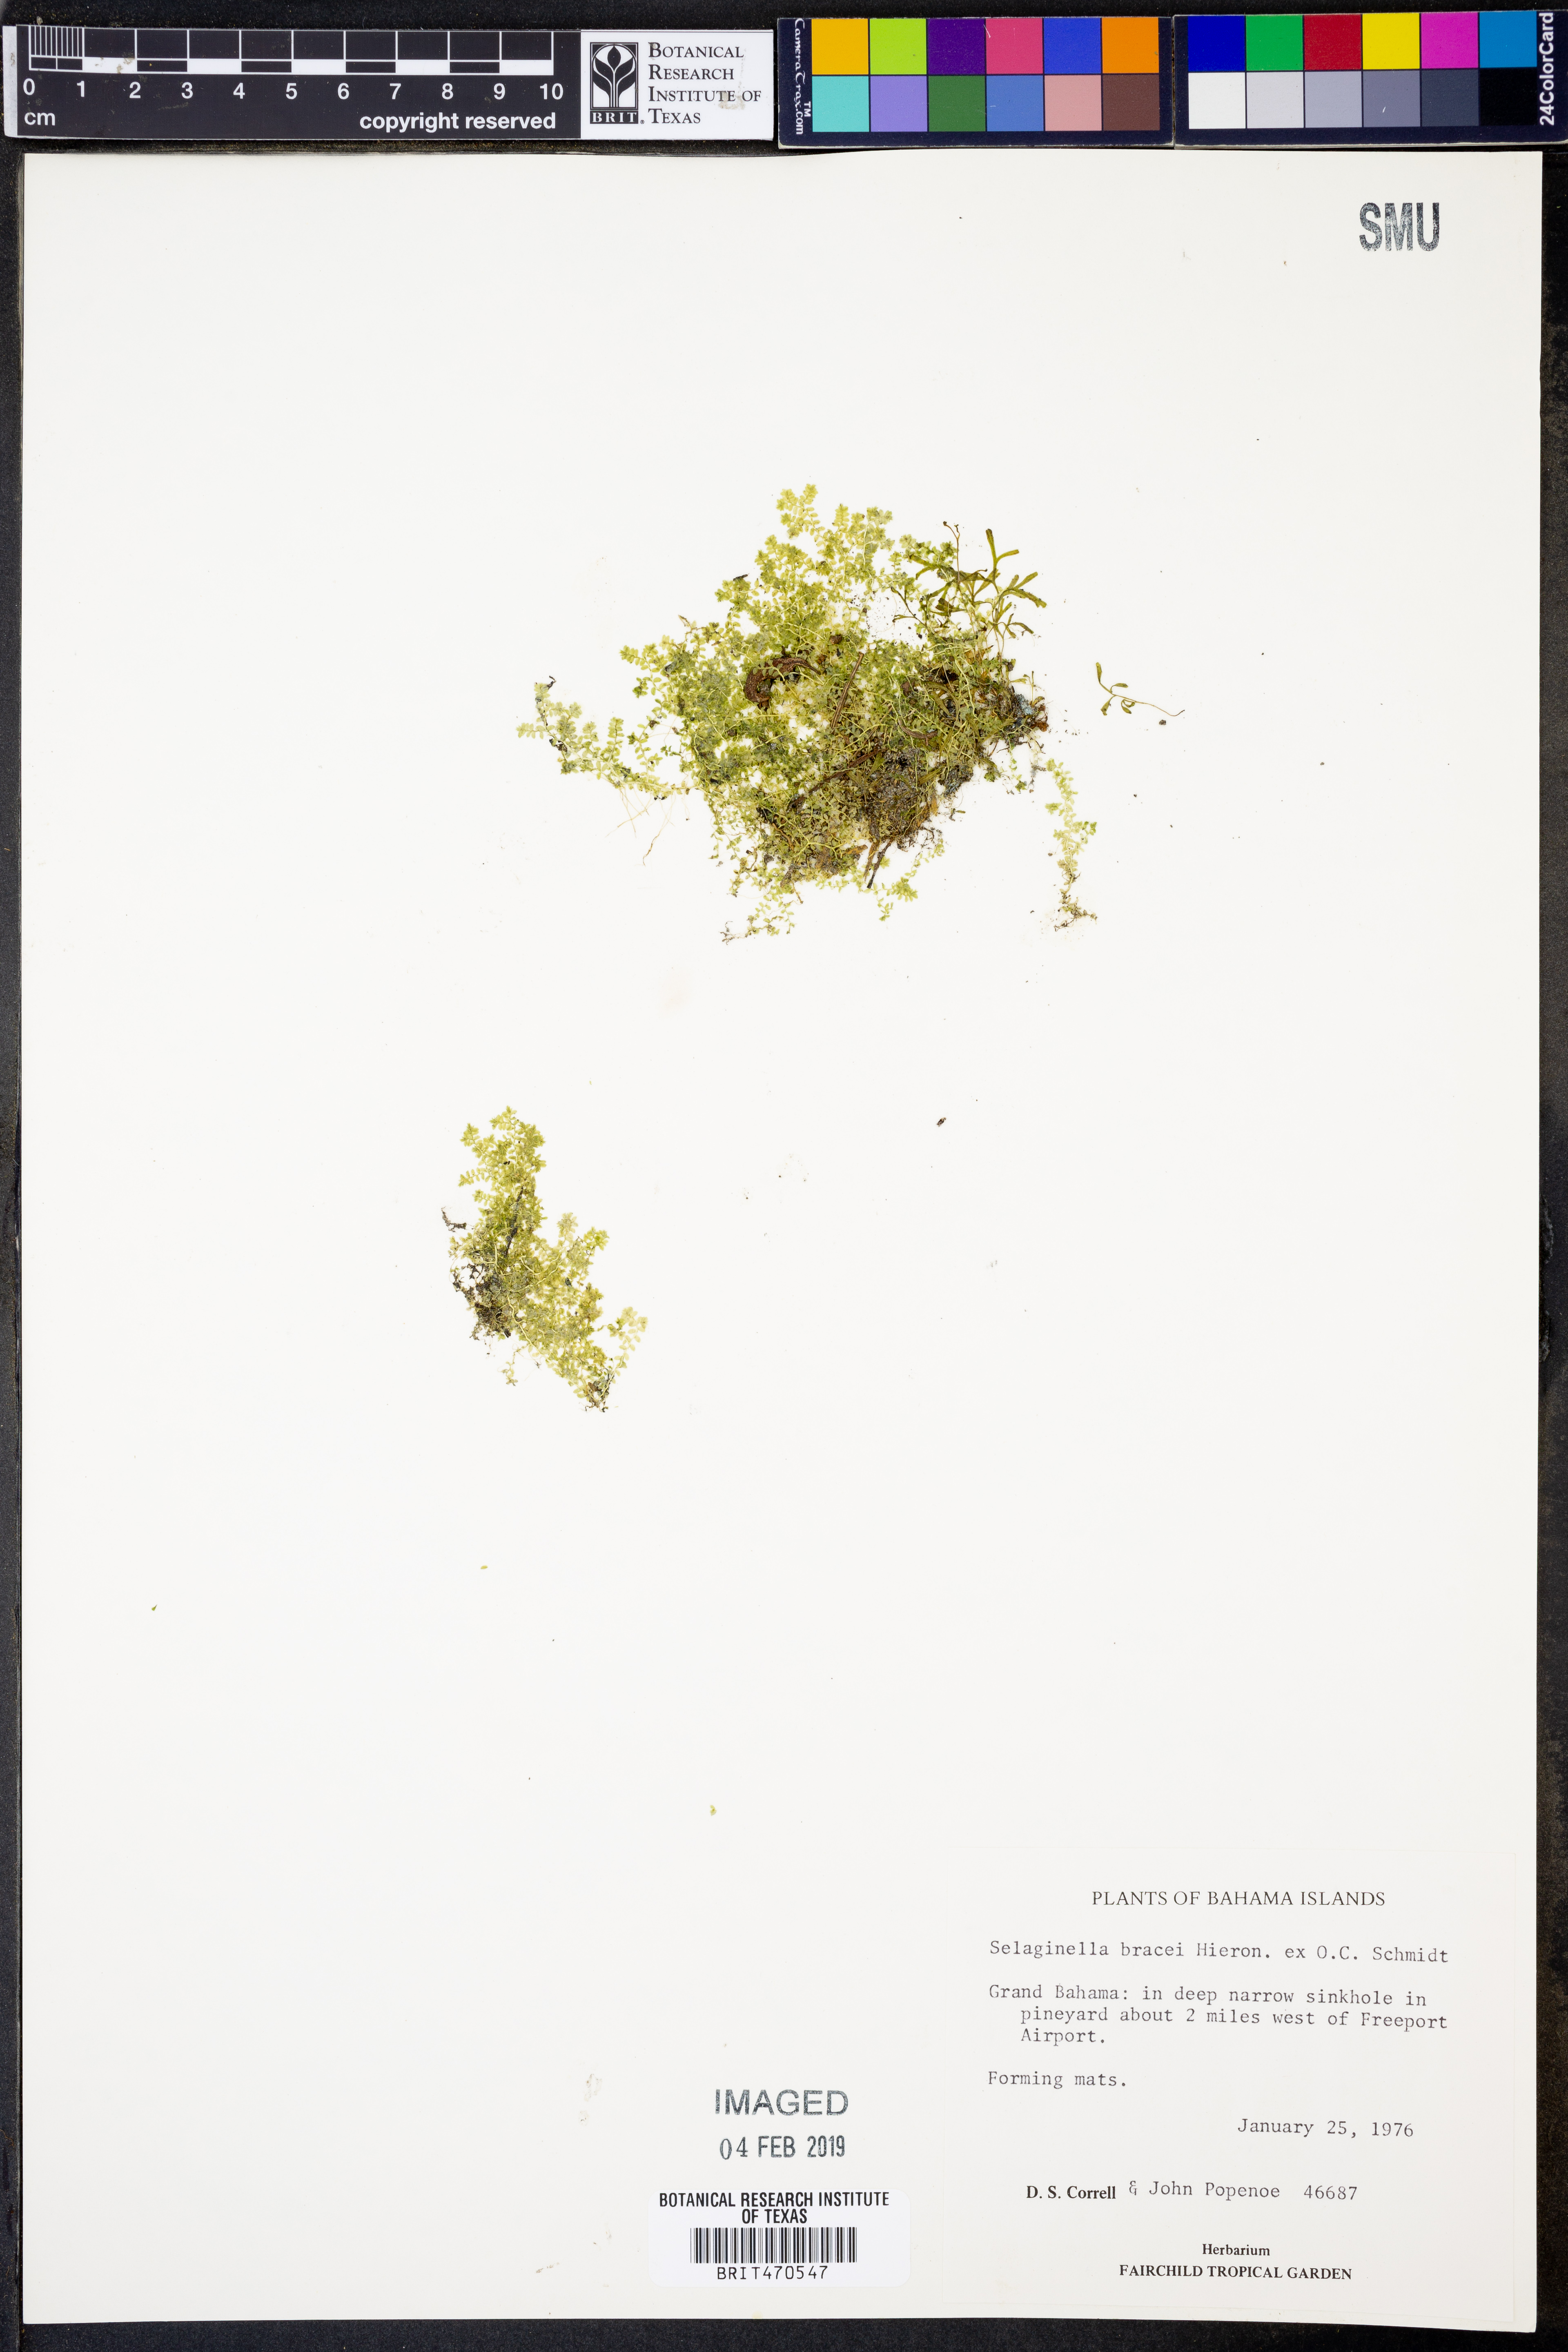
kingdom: Plantae
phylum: Tracheophyta
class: Lycopodiopsida
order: Selaginellales
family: Selaginellaceae
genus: Selaginella
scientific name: Selaginella bracei
